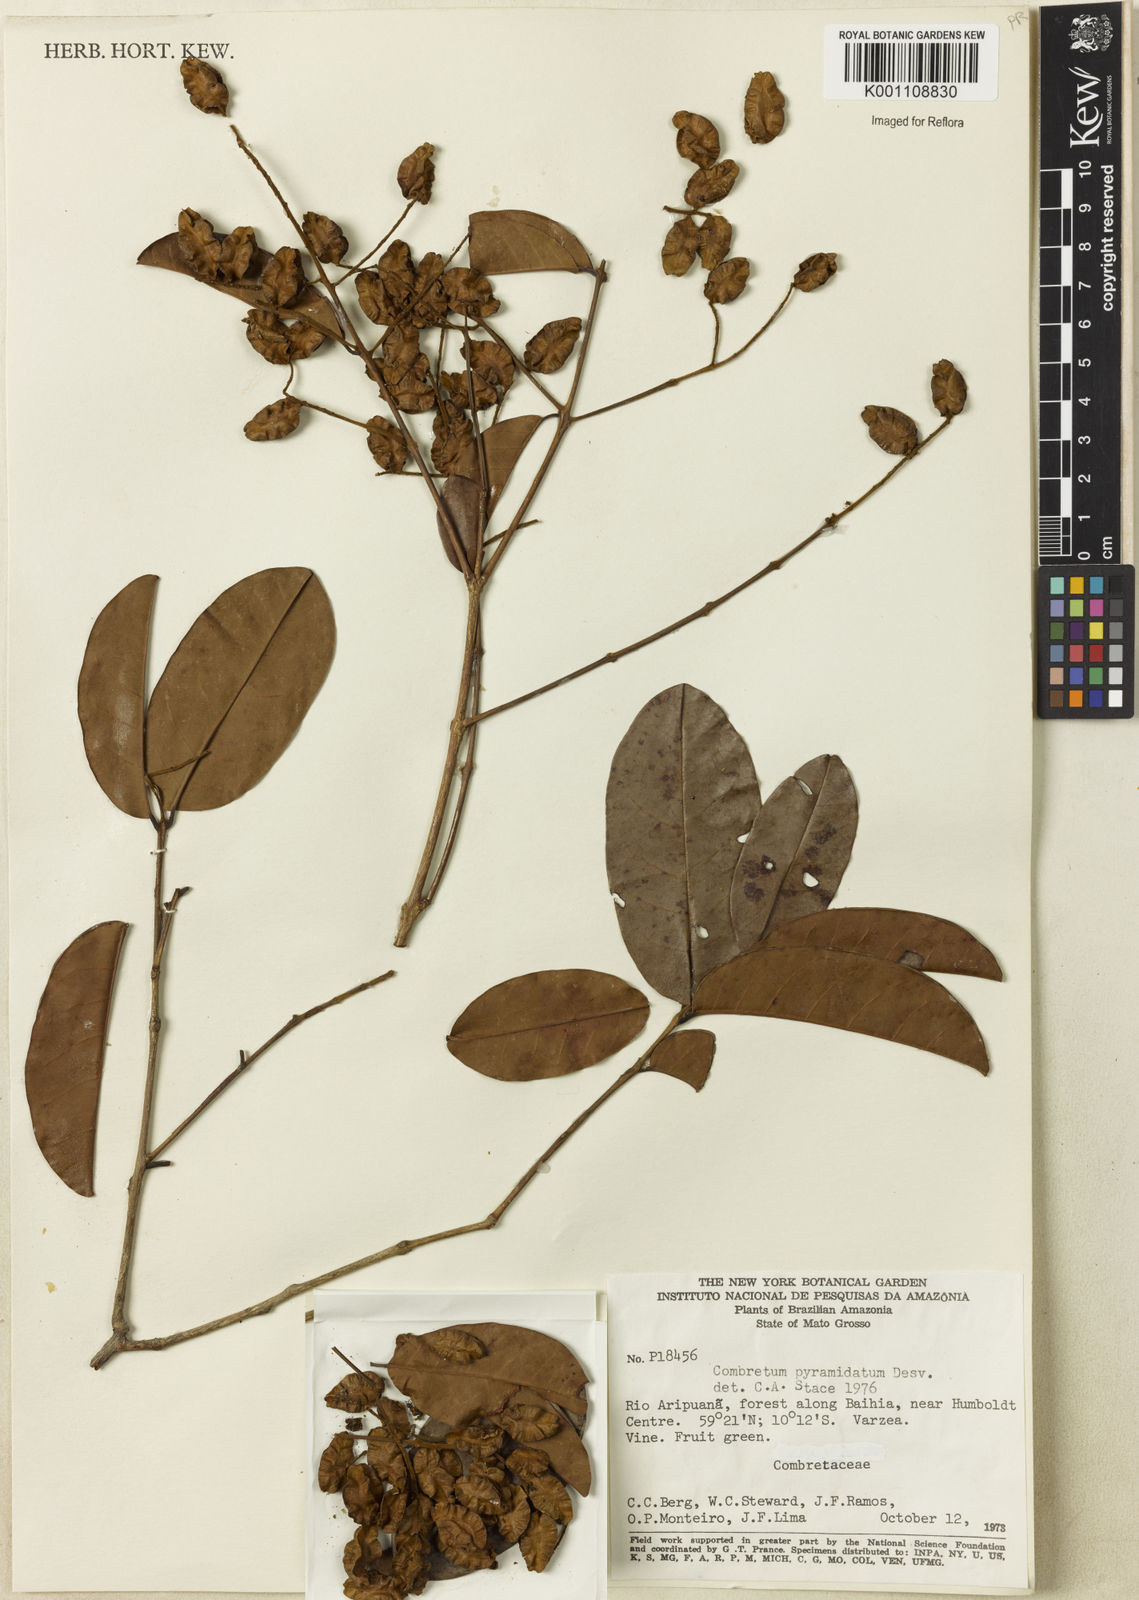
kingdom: Plantae
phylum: Tracheophyta
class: Magnoliopsida
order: Myrtales
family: Combretaceae
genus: Combretum
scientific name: Combretum pyramidatum
